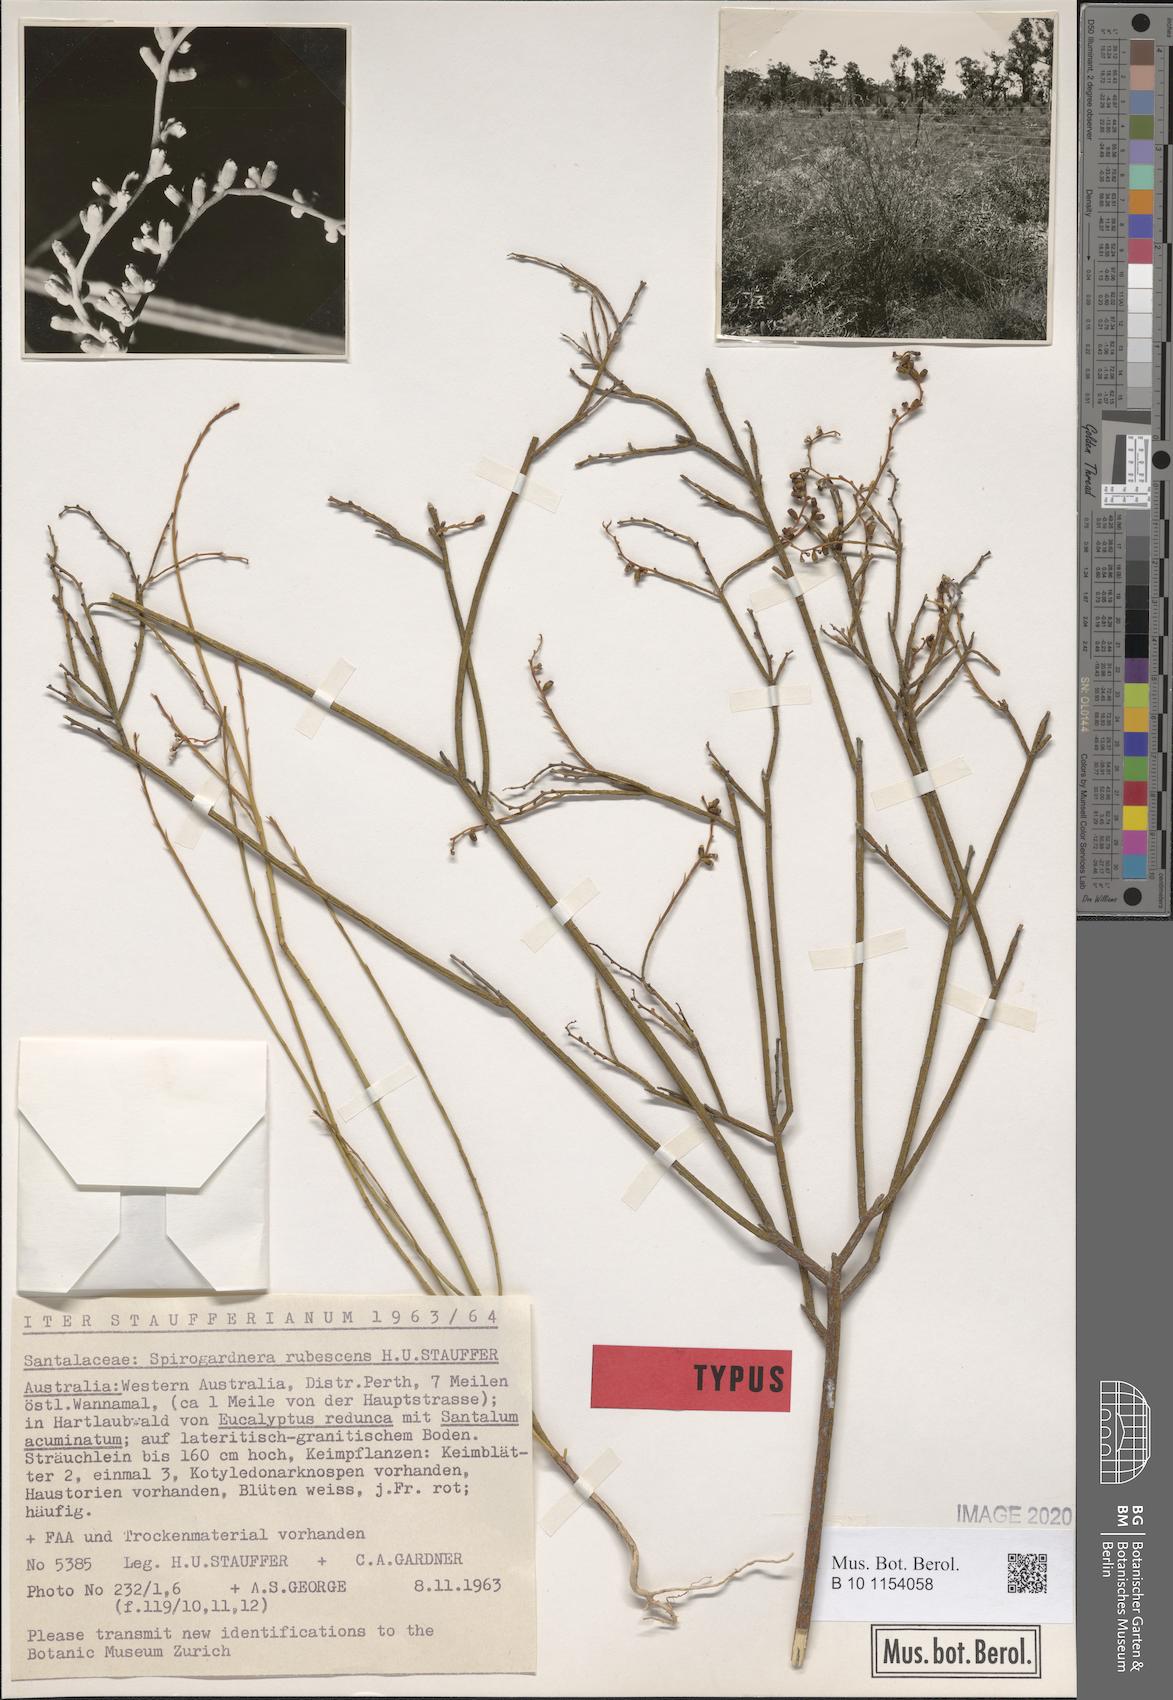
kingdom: Plantae
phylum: Tracheophyta
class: Magnoliopsida
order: Santalales
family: Amphorogynaceae
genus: Spirogardnera
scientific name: Spirogardnera rubescens
